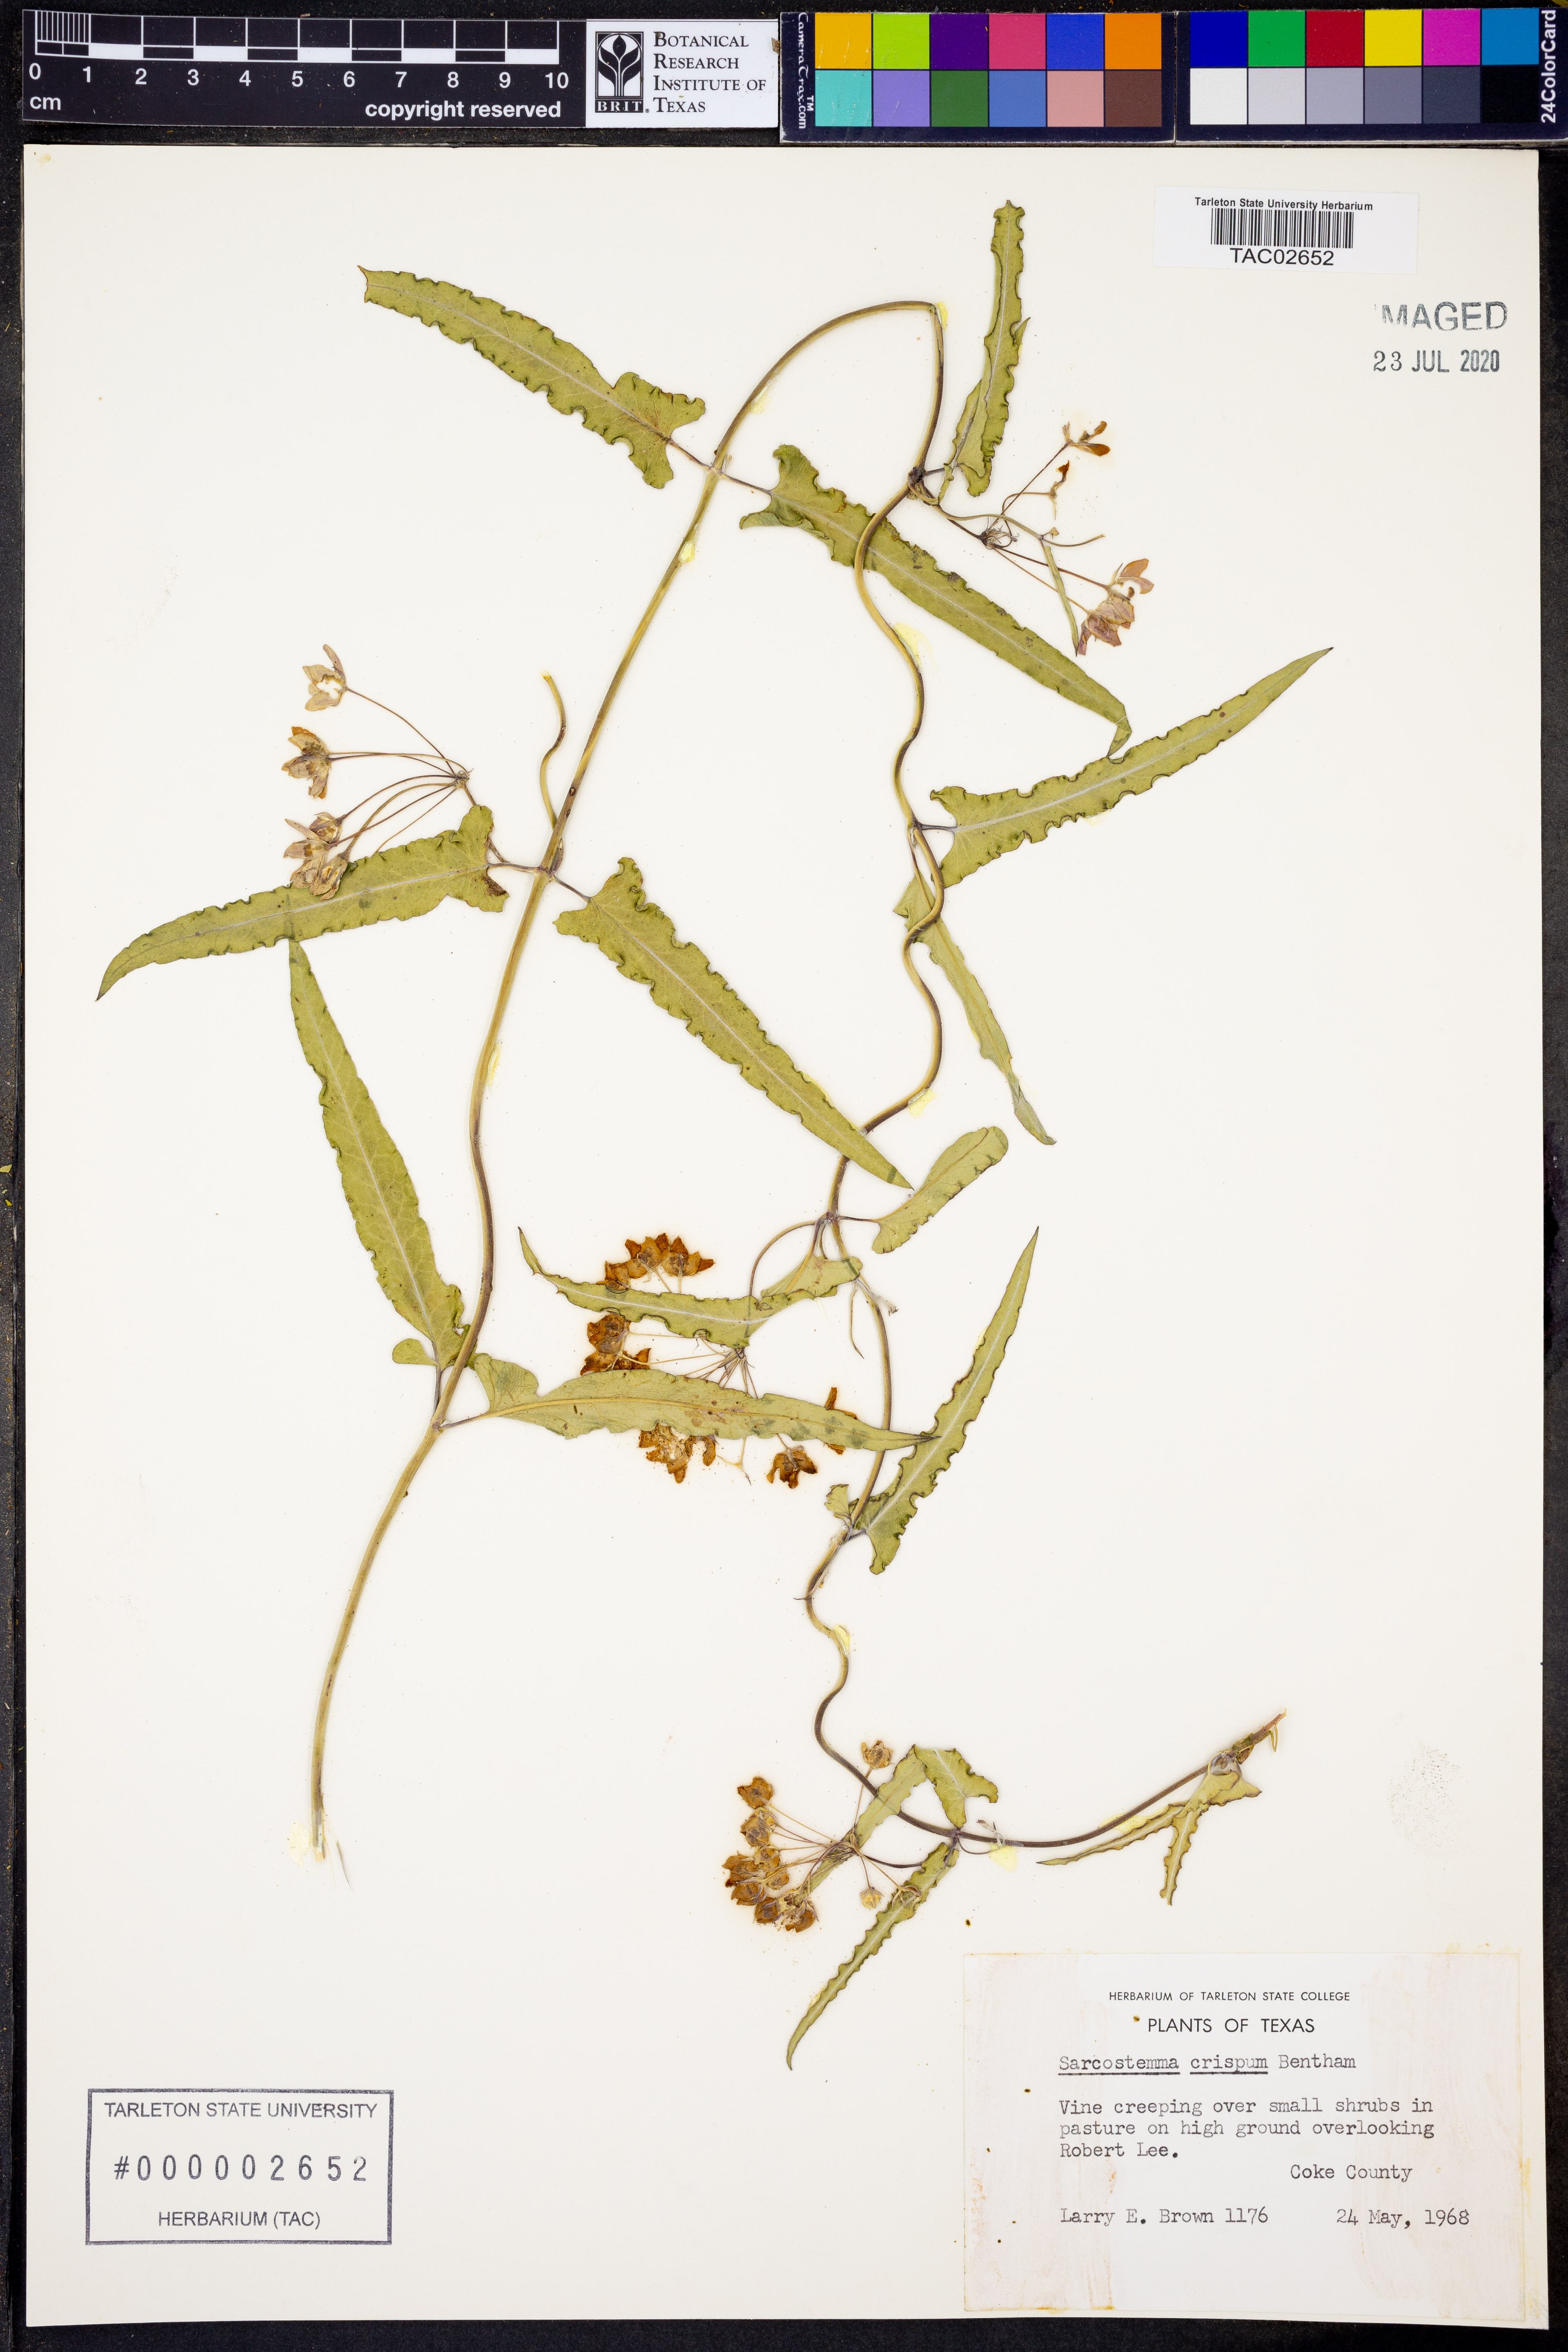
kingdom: Plantae
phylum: Tracheophyta
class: Magnoliopsida
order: Gentianales
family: Apocynaceae
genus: Funastrum
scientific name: Funastrum crispum
